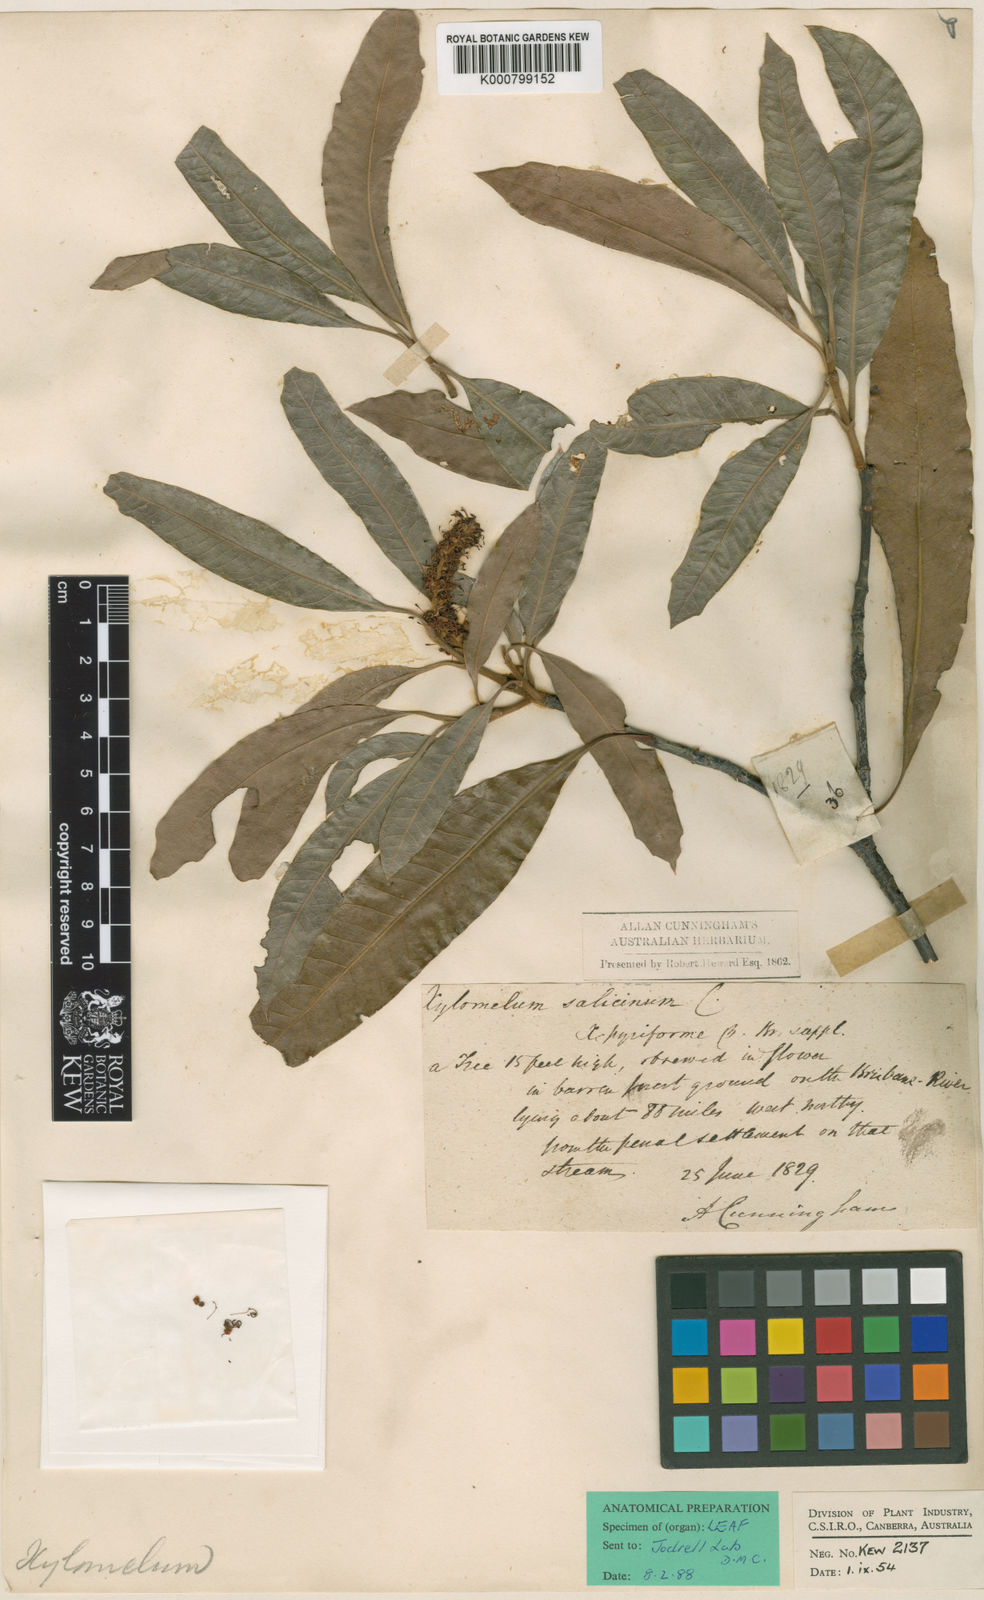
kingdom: Plantae
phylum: Tracheophyta
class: Magnoliopsida
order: Proteales
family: Proteaceae
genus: Xylomelum
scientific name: Xylomelum salicinum
